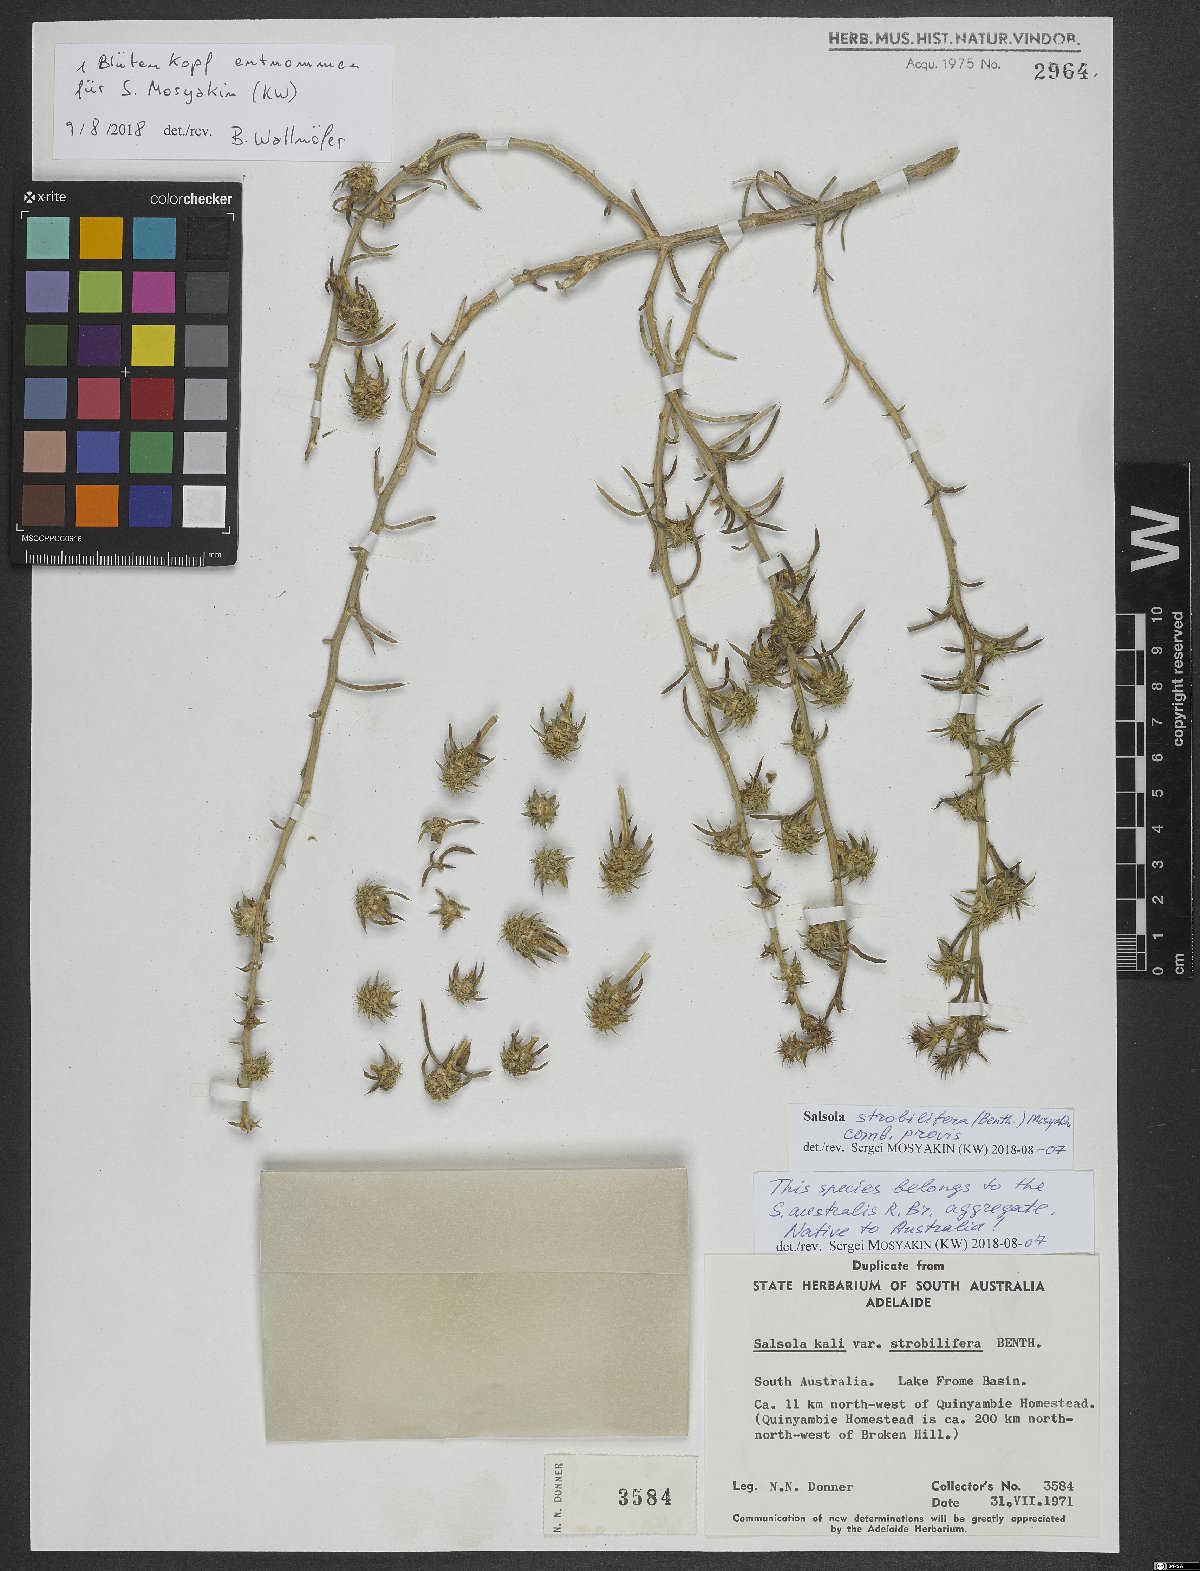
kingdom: Plantae
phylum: Tracheophyta
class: Magnoliopsida
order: Caryophyllales
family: Amaranthaceae
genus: Salsola
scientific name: Salsola strobilifera
